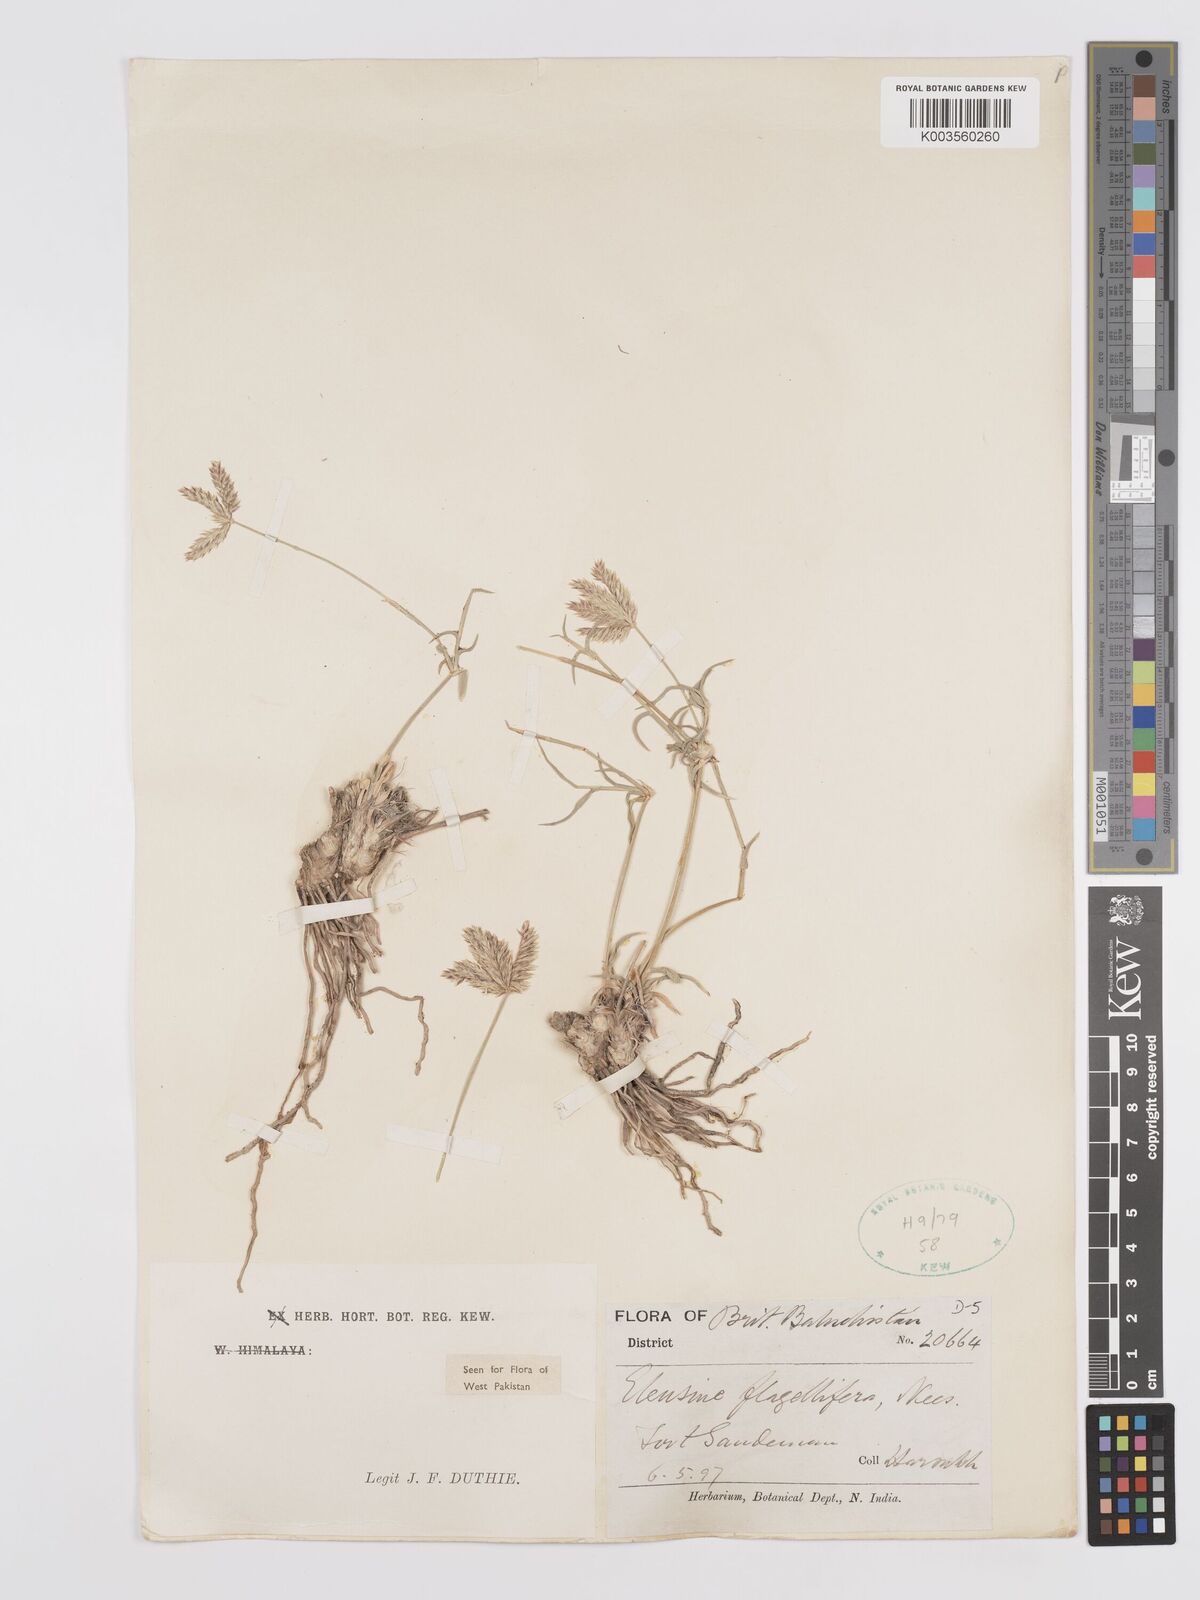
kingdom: Plantae
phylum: Tracheophyta
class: Liliopsida
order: Poales
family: Poaceae
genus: Chloris
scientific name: Chloris flagellifera
